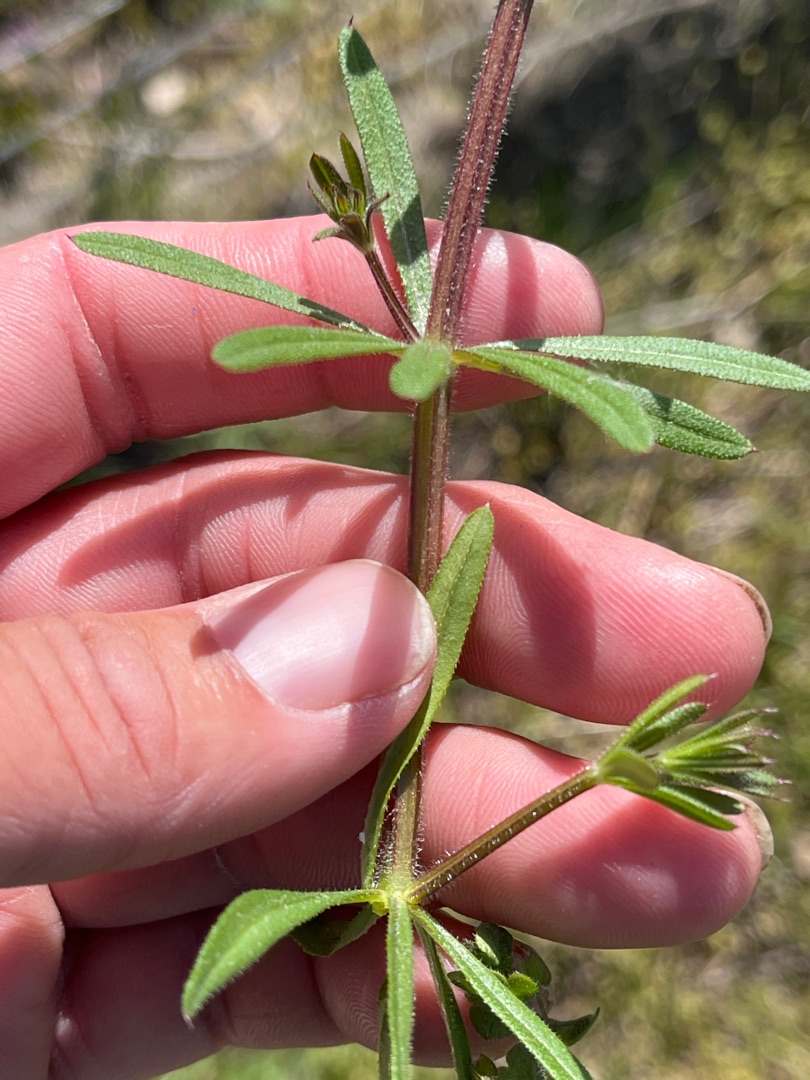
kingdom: Plantae
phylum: Tracheophyta
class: Magnoliopsida
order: Gentianales
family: Rubiaceae
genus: Galium
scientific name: Galium aparine
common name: Burre-snerre
